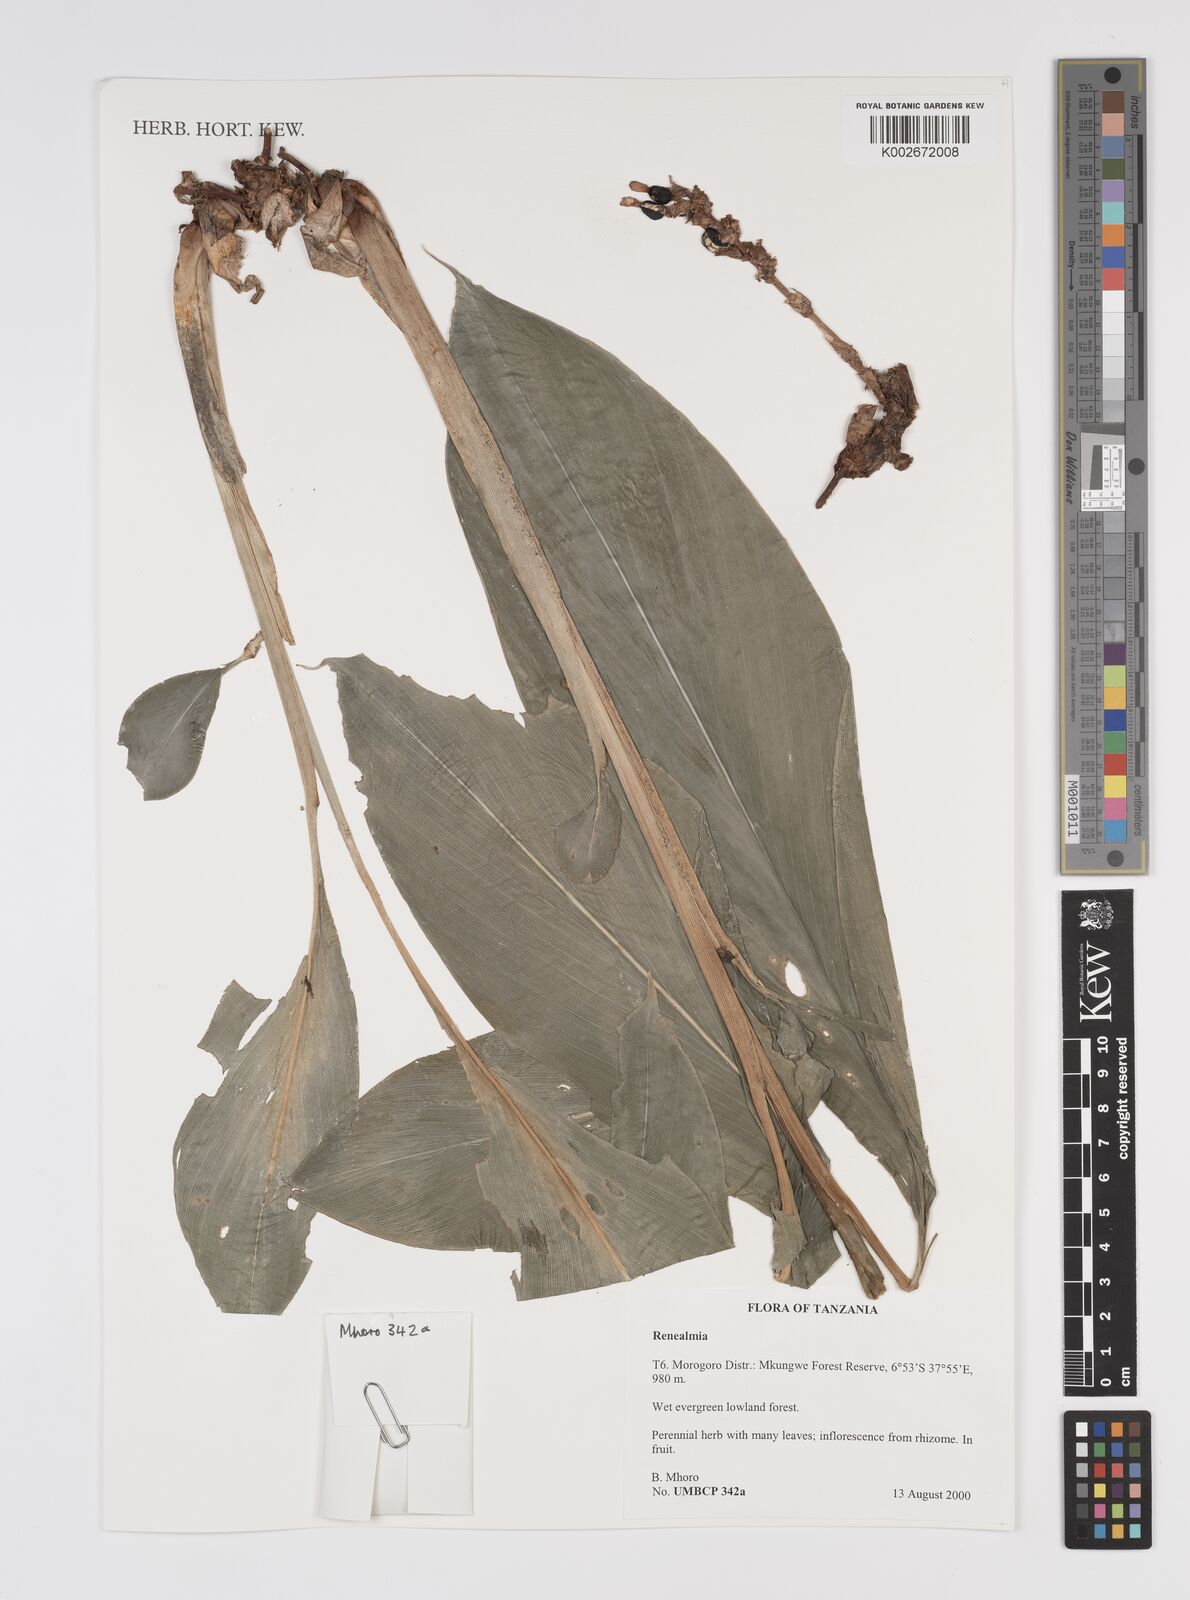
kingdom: Plantae
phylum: Tracheophyta
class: Liliopsida
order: Zingiberales
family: Zingiberaceae
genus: Renealmia
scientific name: Renealmia
